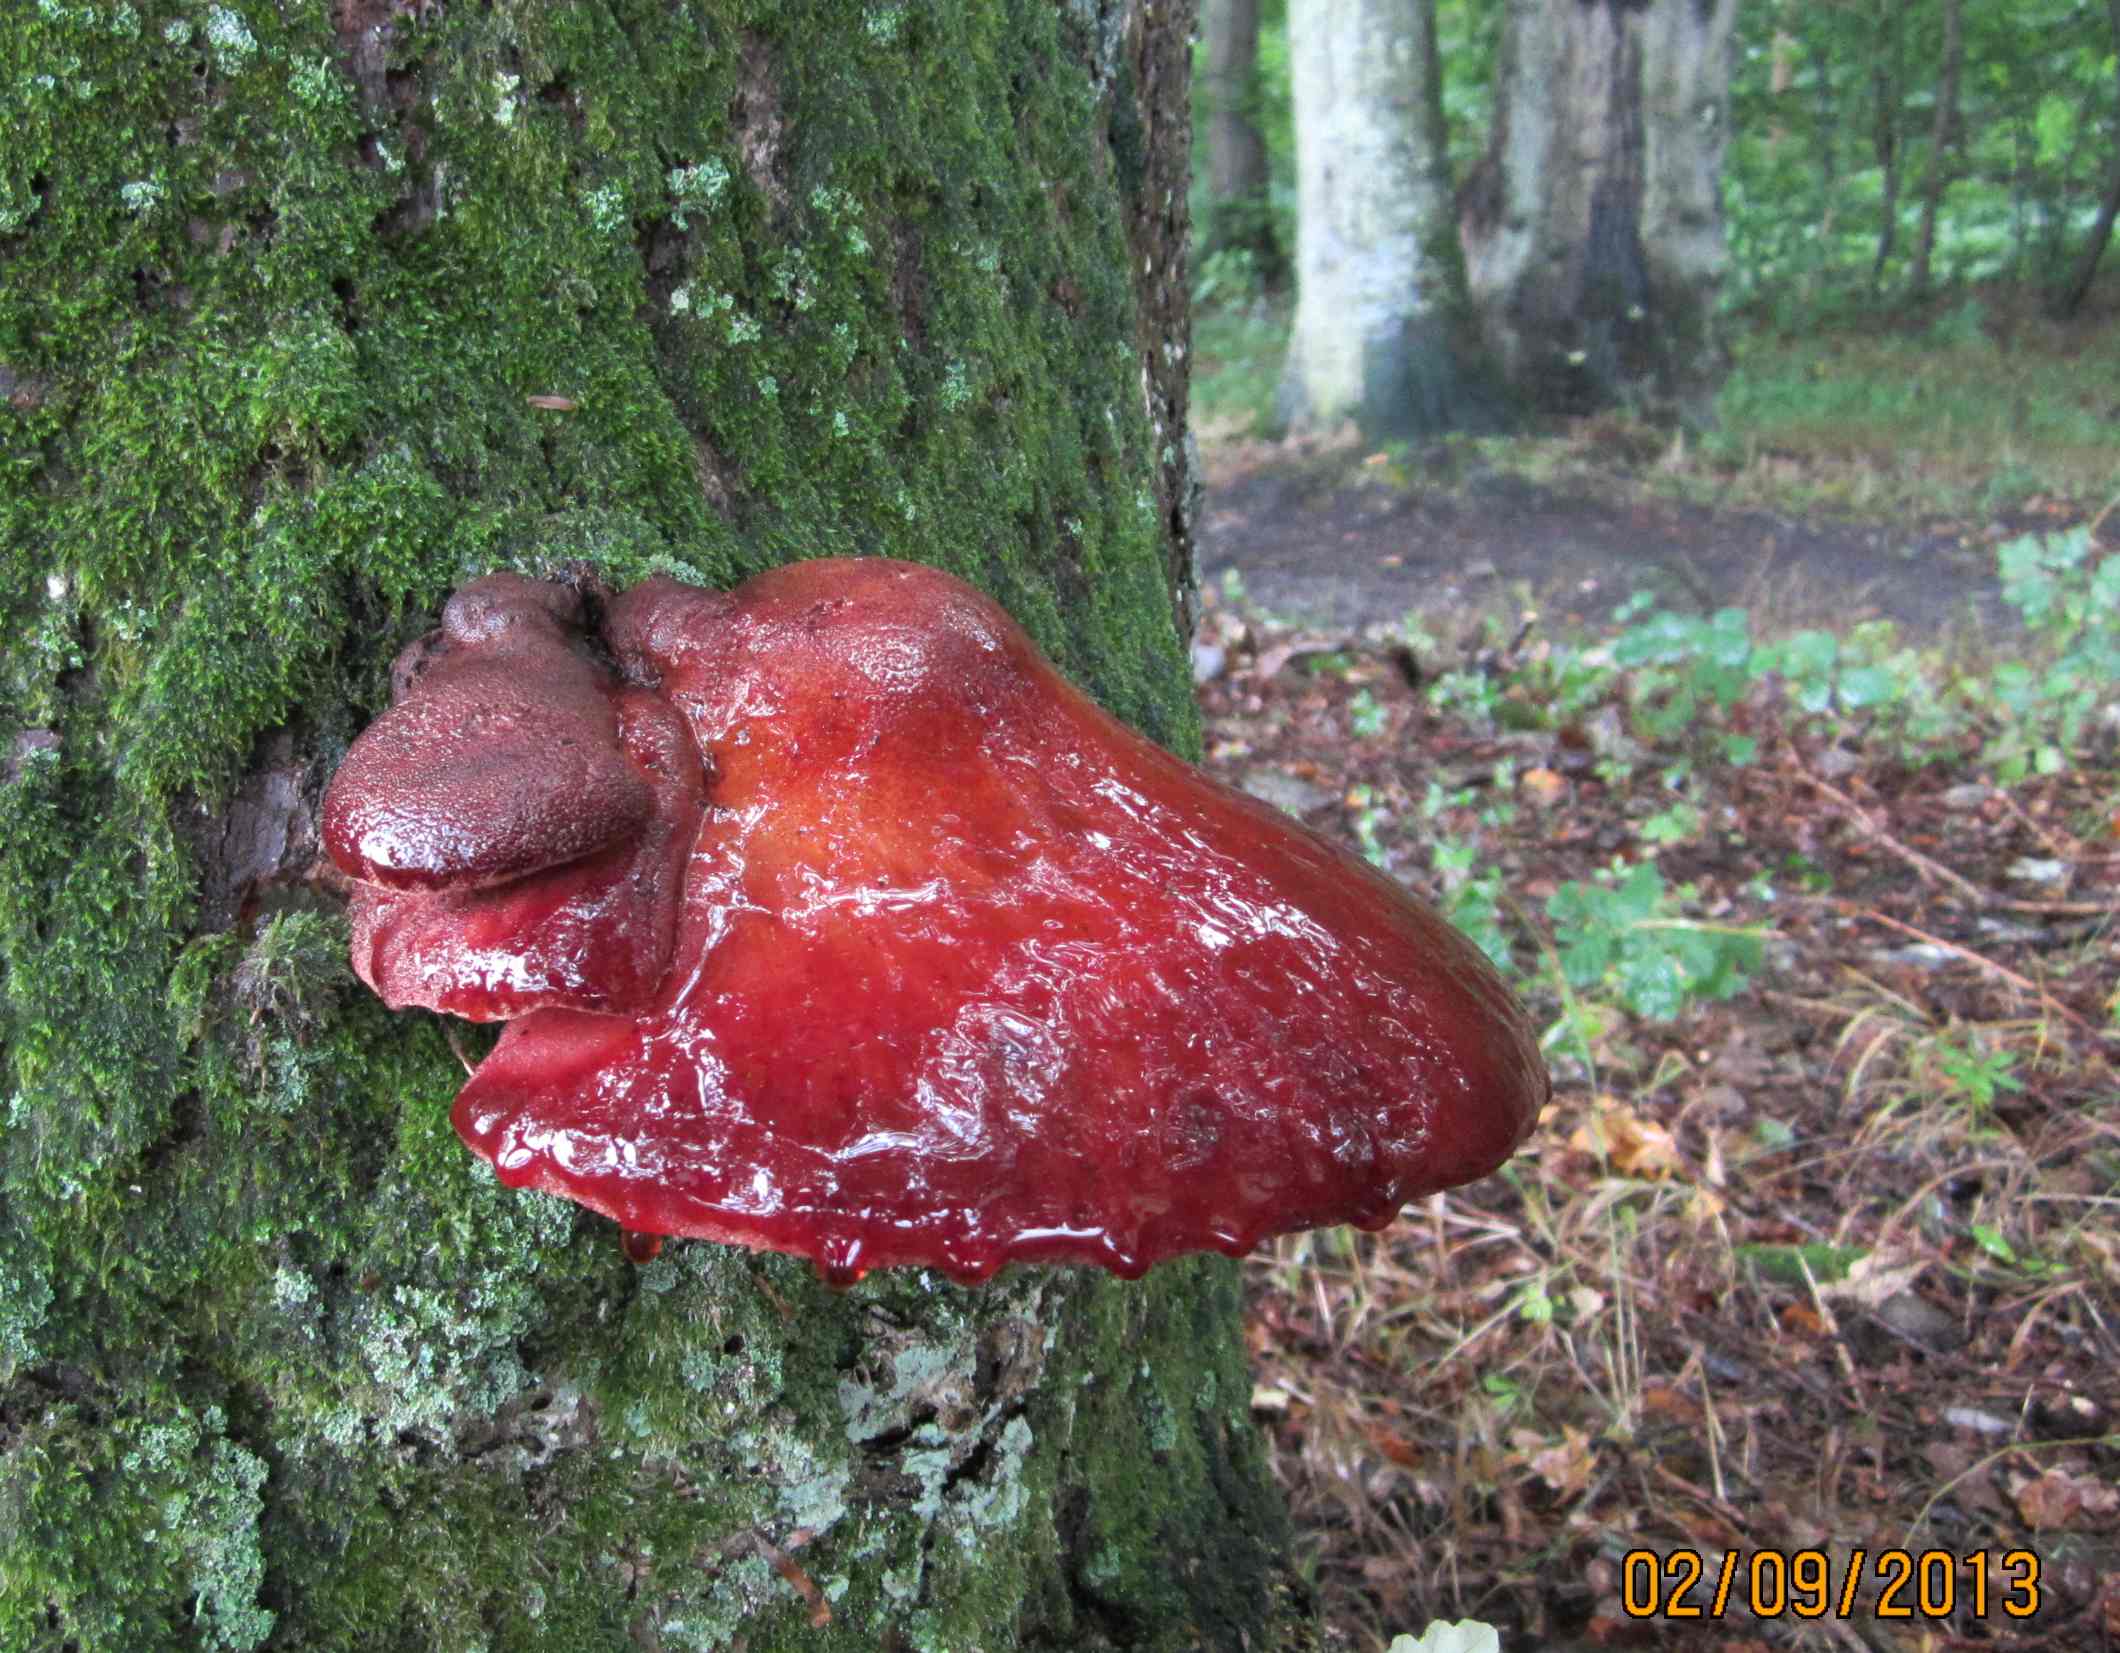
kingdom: Fungi
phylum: Basidiomycota
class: Agaricomycetes
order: Agaricales
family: Fistulinaceae
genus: Fistulina
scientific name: Fistulina hepatica
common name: oksetunge
